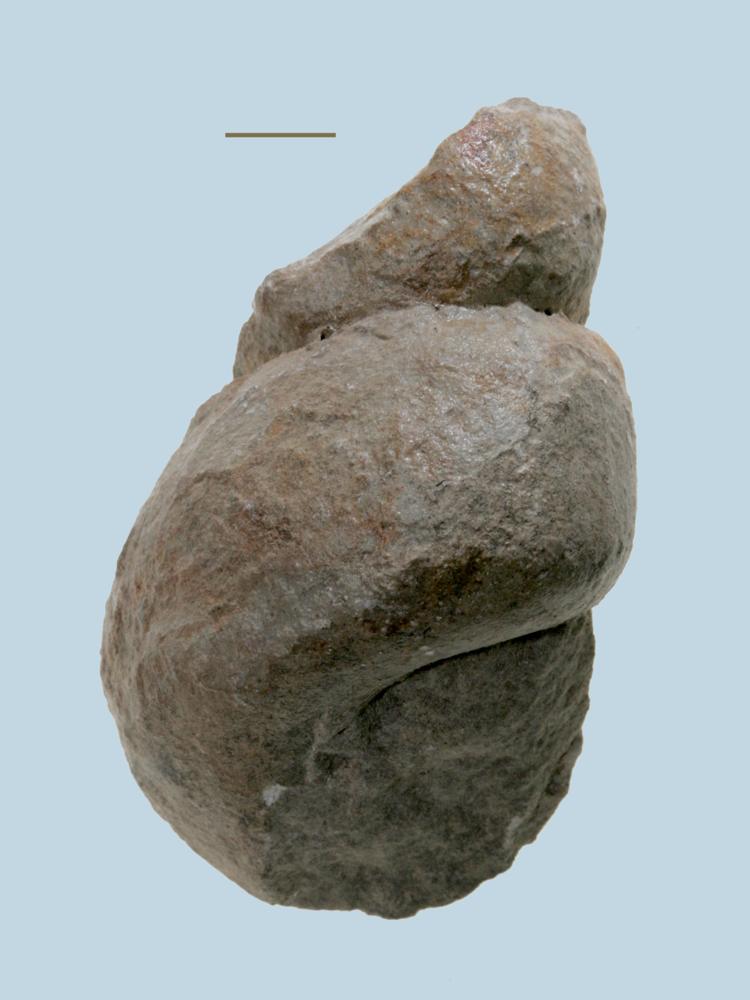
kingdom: Animalia
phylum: Mollusca
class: Gastropoda
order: Pleurotomariida
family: Murchisoniidae
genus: Murchisonia
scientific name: Murchisonia insignis
